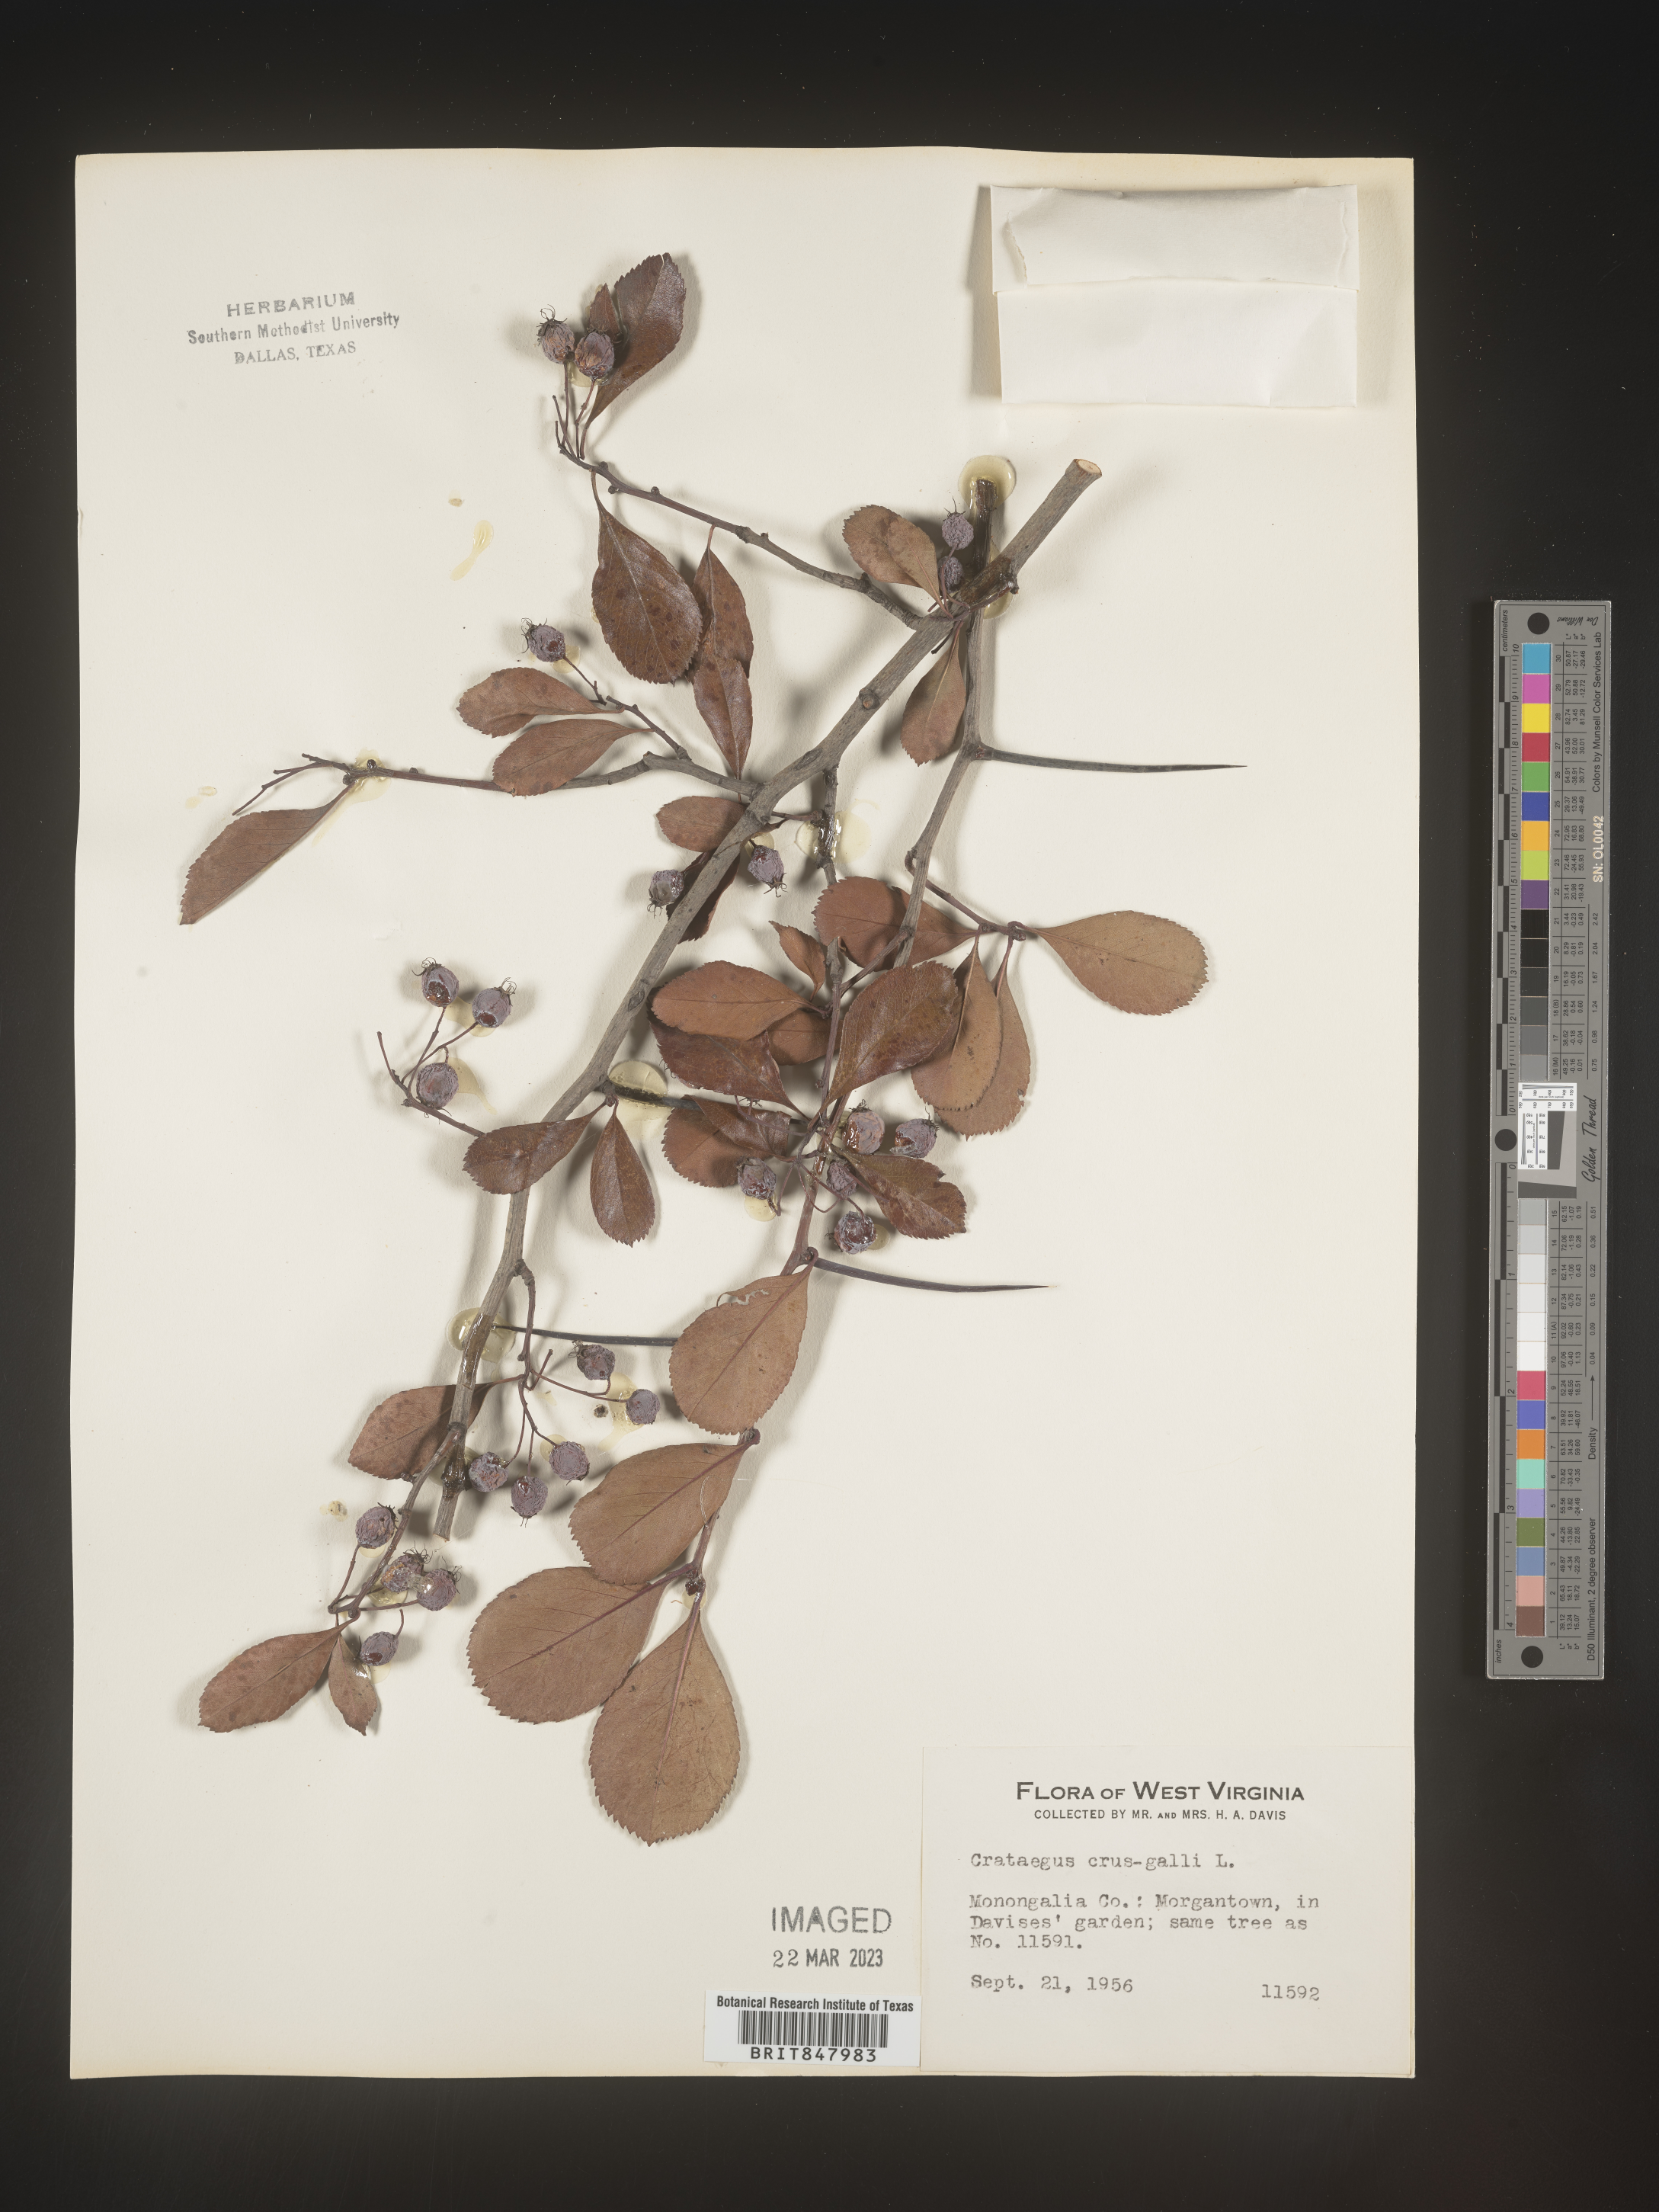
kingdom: Plantae
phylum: Tracheophyta
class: Magnoliopsida
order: Rosales
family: Rosaceae
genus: Crataegus
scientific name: Crataegus crus-galli
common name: Cockspurthorn
